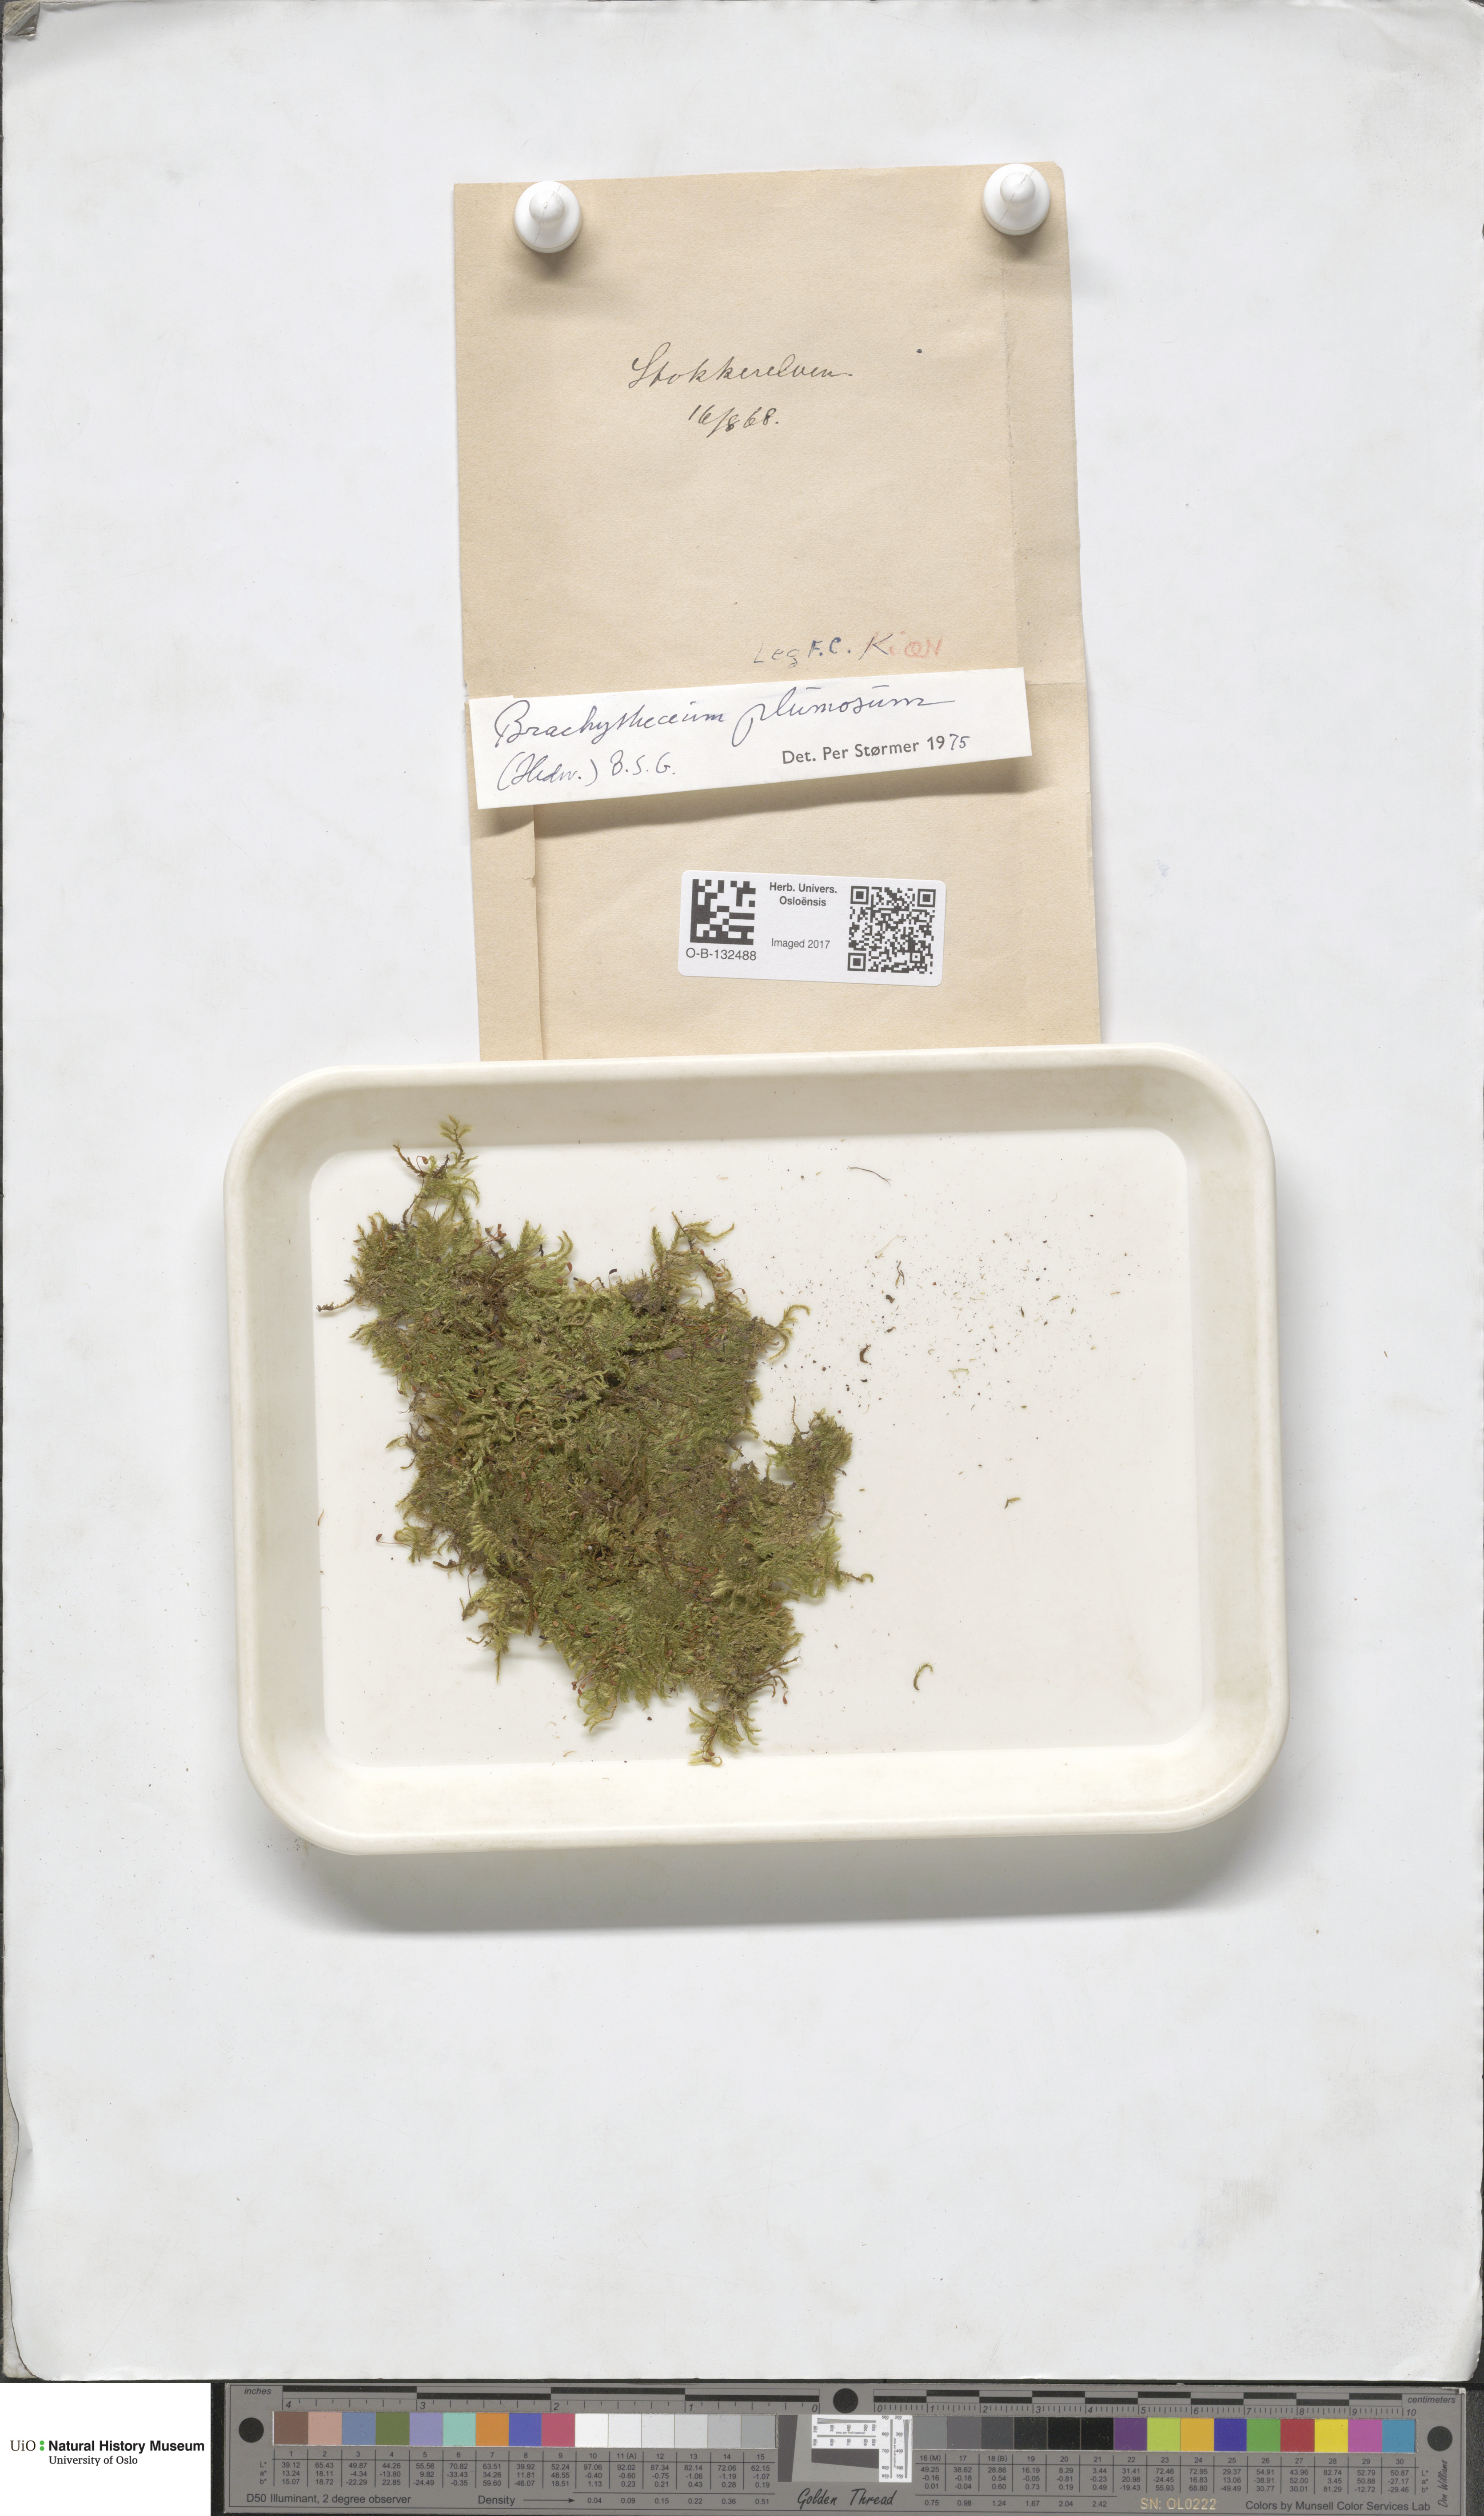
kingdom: Plantae
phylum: Bryophyta
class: Bryopsida
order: Hypnales
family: Brachytheciaceae
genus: Sciuro-hypnum
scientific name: Sciuro-hypnum plumosum
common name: Rusty feather-moss
